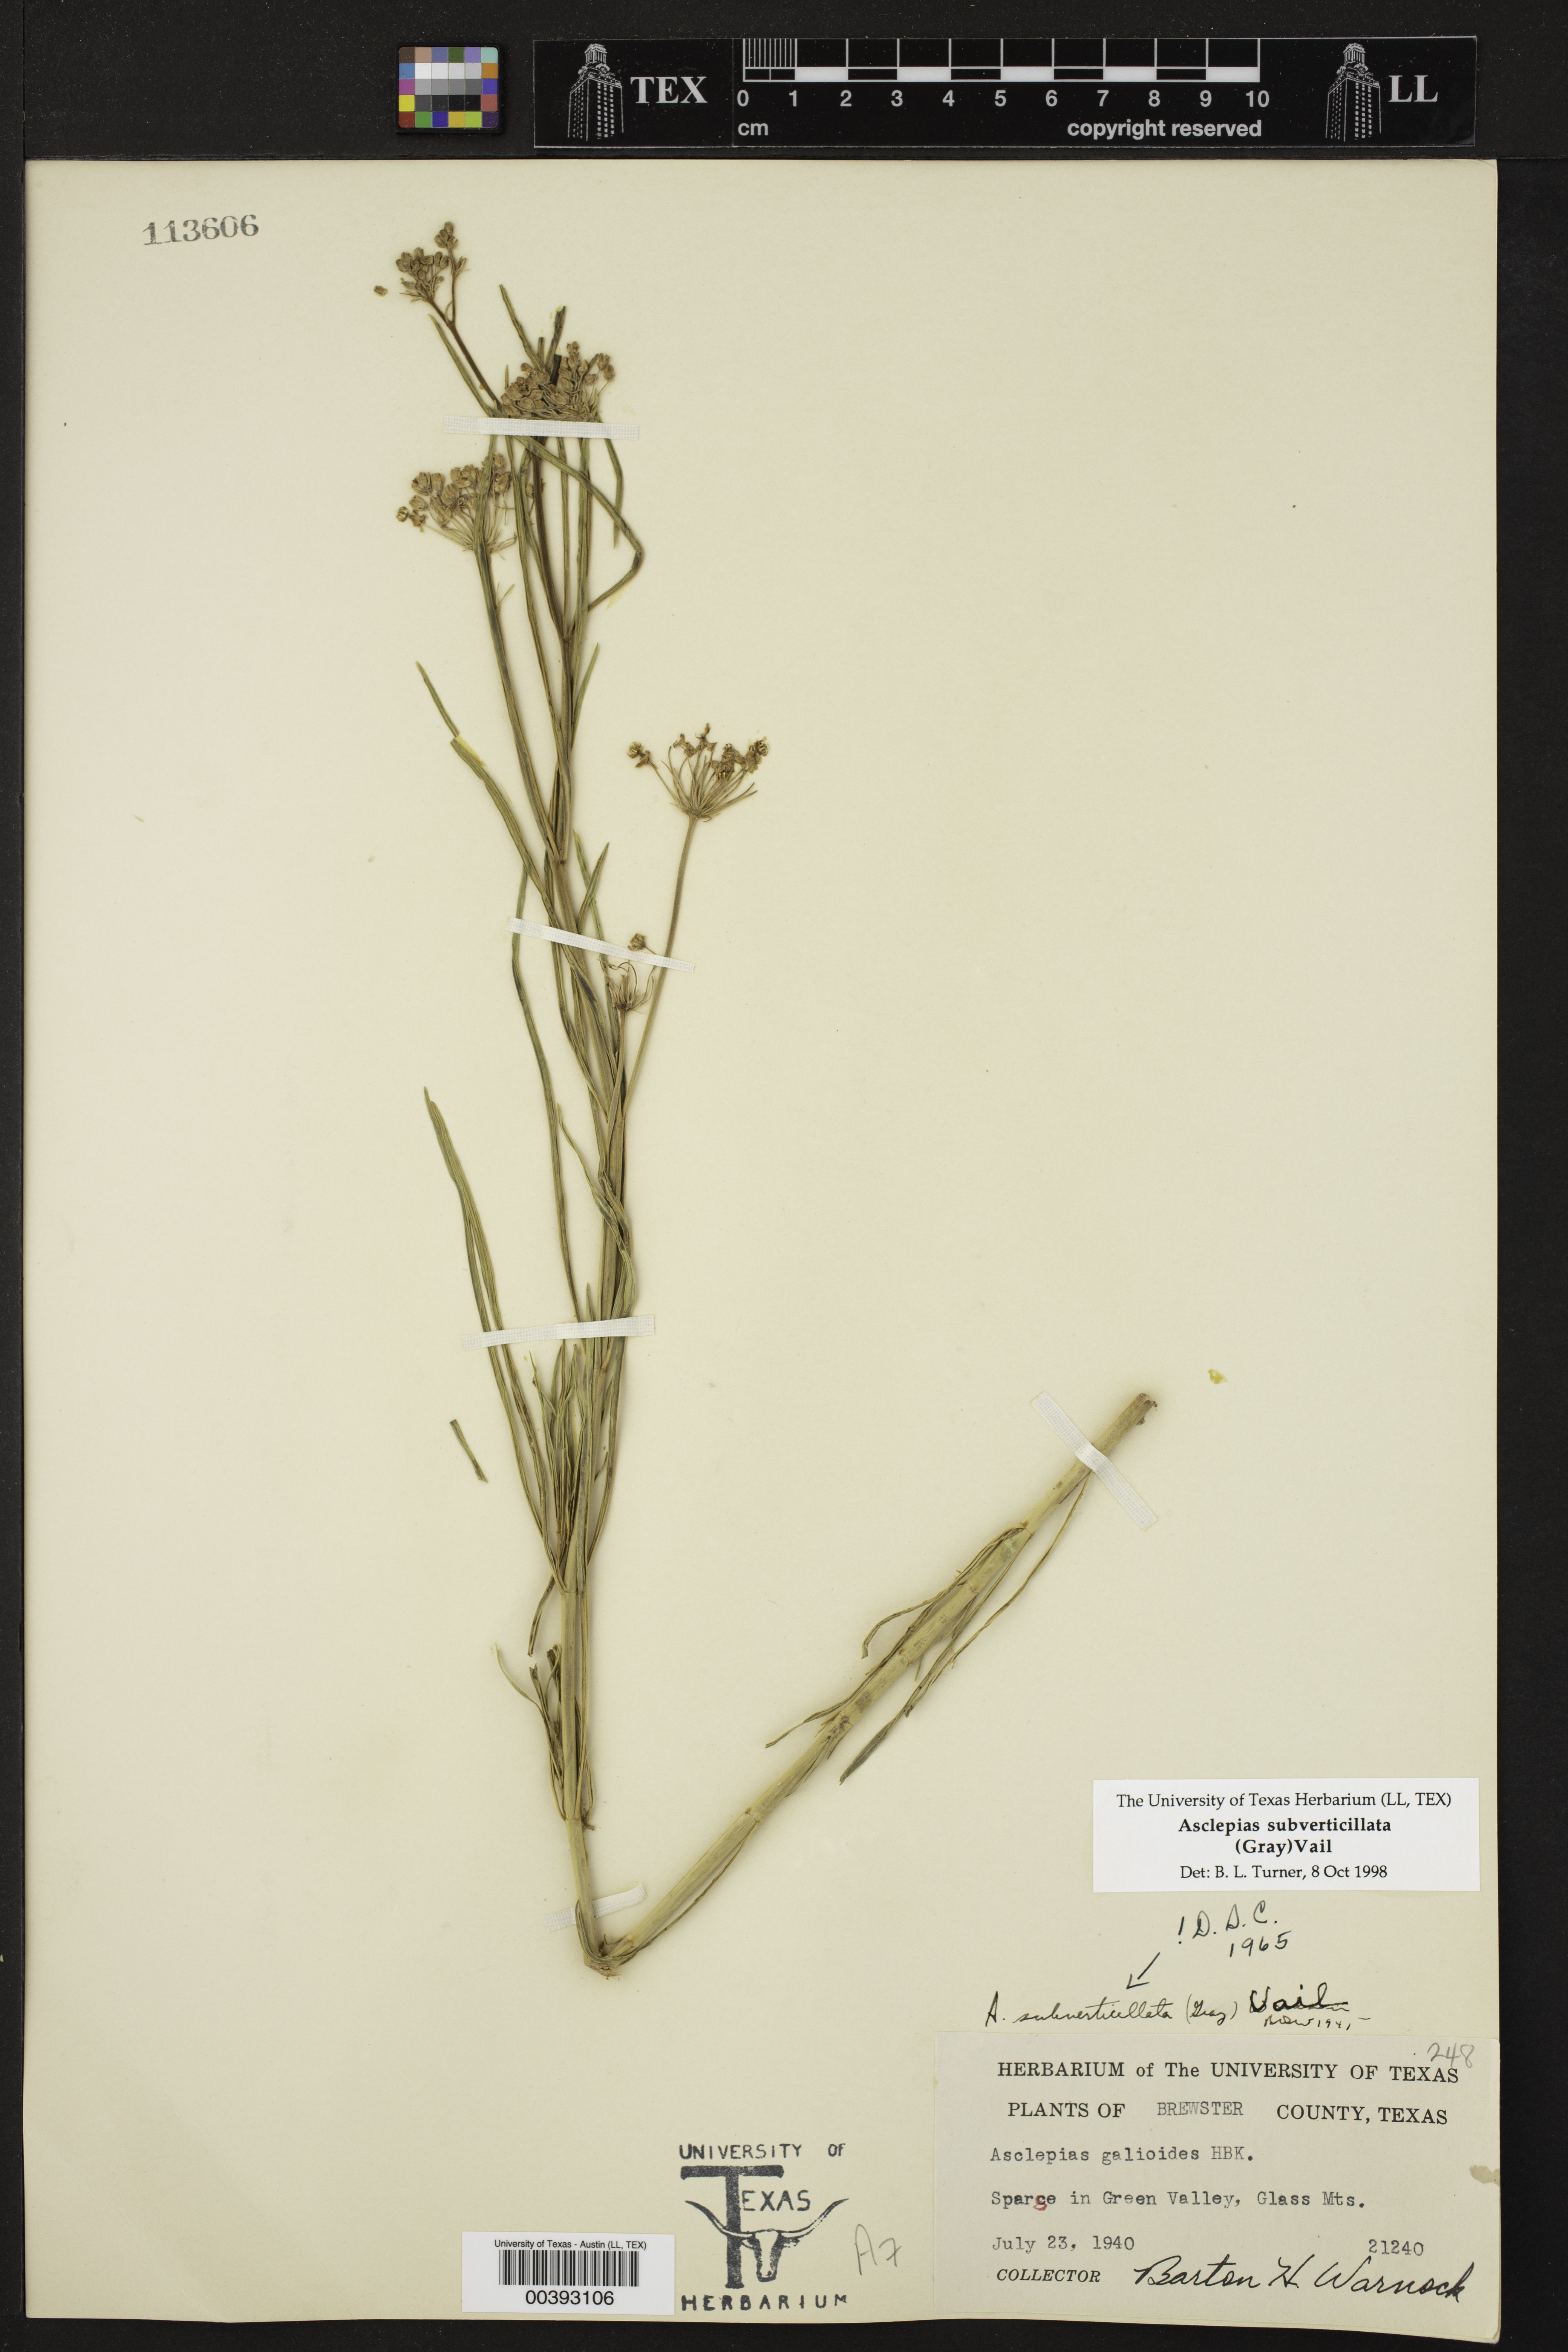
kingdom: Plantae
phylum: Tracheophyta
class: Magnoliopsida
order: Gentianales
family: Apocynaceae
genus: Asclepias
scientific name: Asclepias subverticillata
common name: Horsetail milkweed
